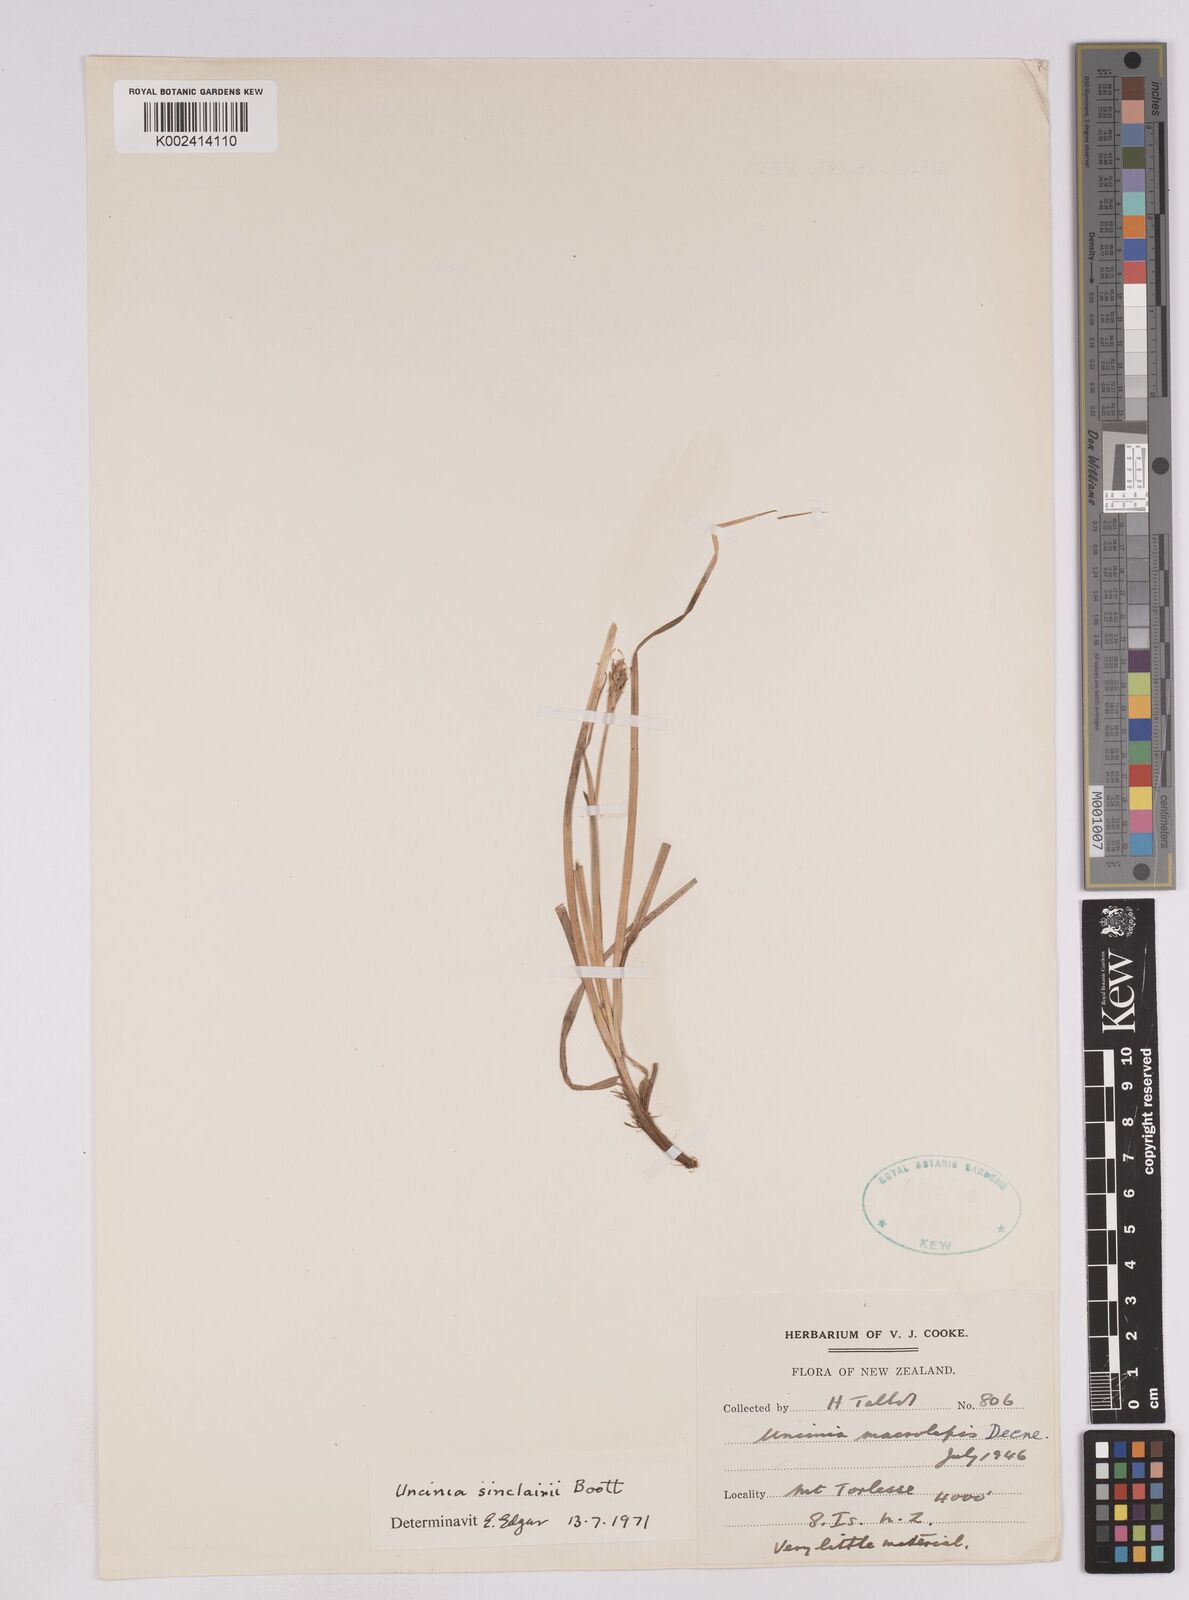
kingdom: Plantae
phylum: Tracheophyta
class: Liliopsida
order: Poales
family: Cyperaceae
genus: Carex
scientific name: Carex parvispica
